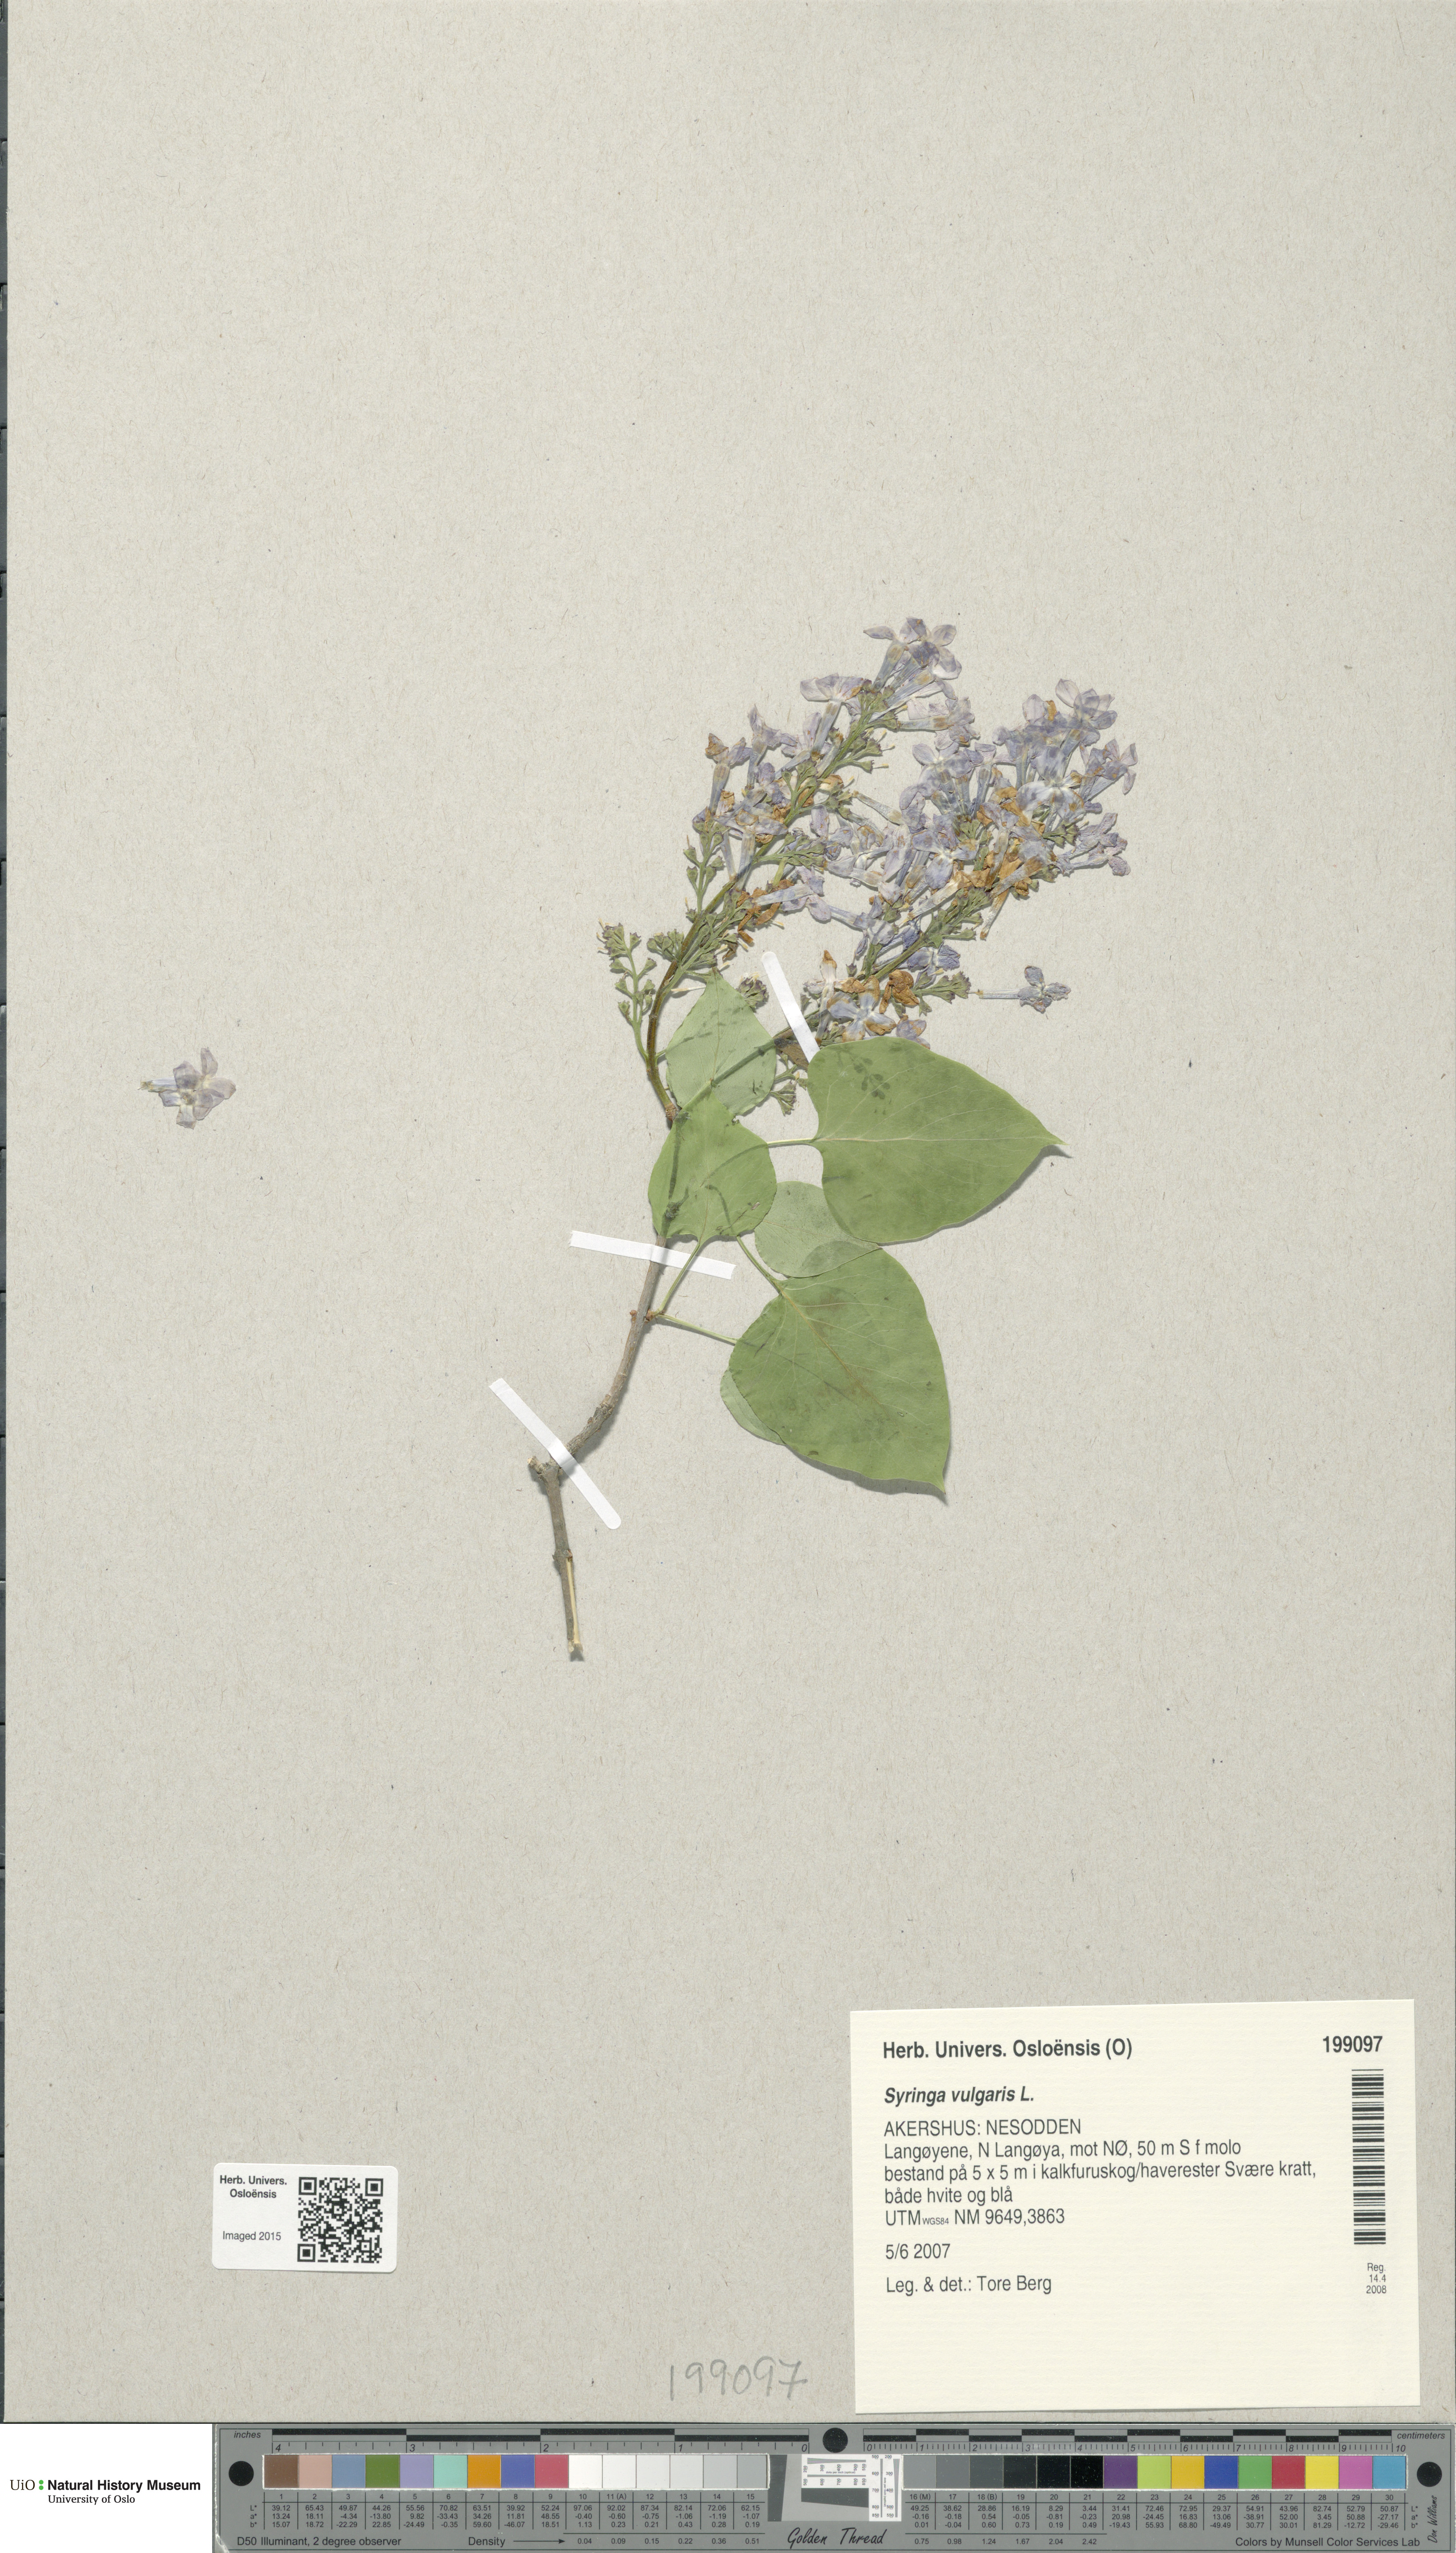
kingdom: Plantae
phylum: Tracheophyta
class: Magnoliopsida
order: Lamiales
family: Oleaceae
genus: Syringa
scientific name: Syringa vulgaris
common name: Common lilac
